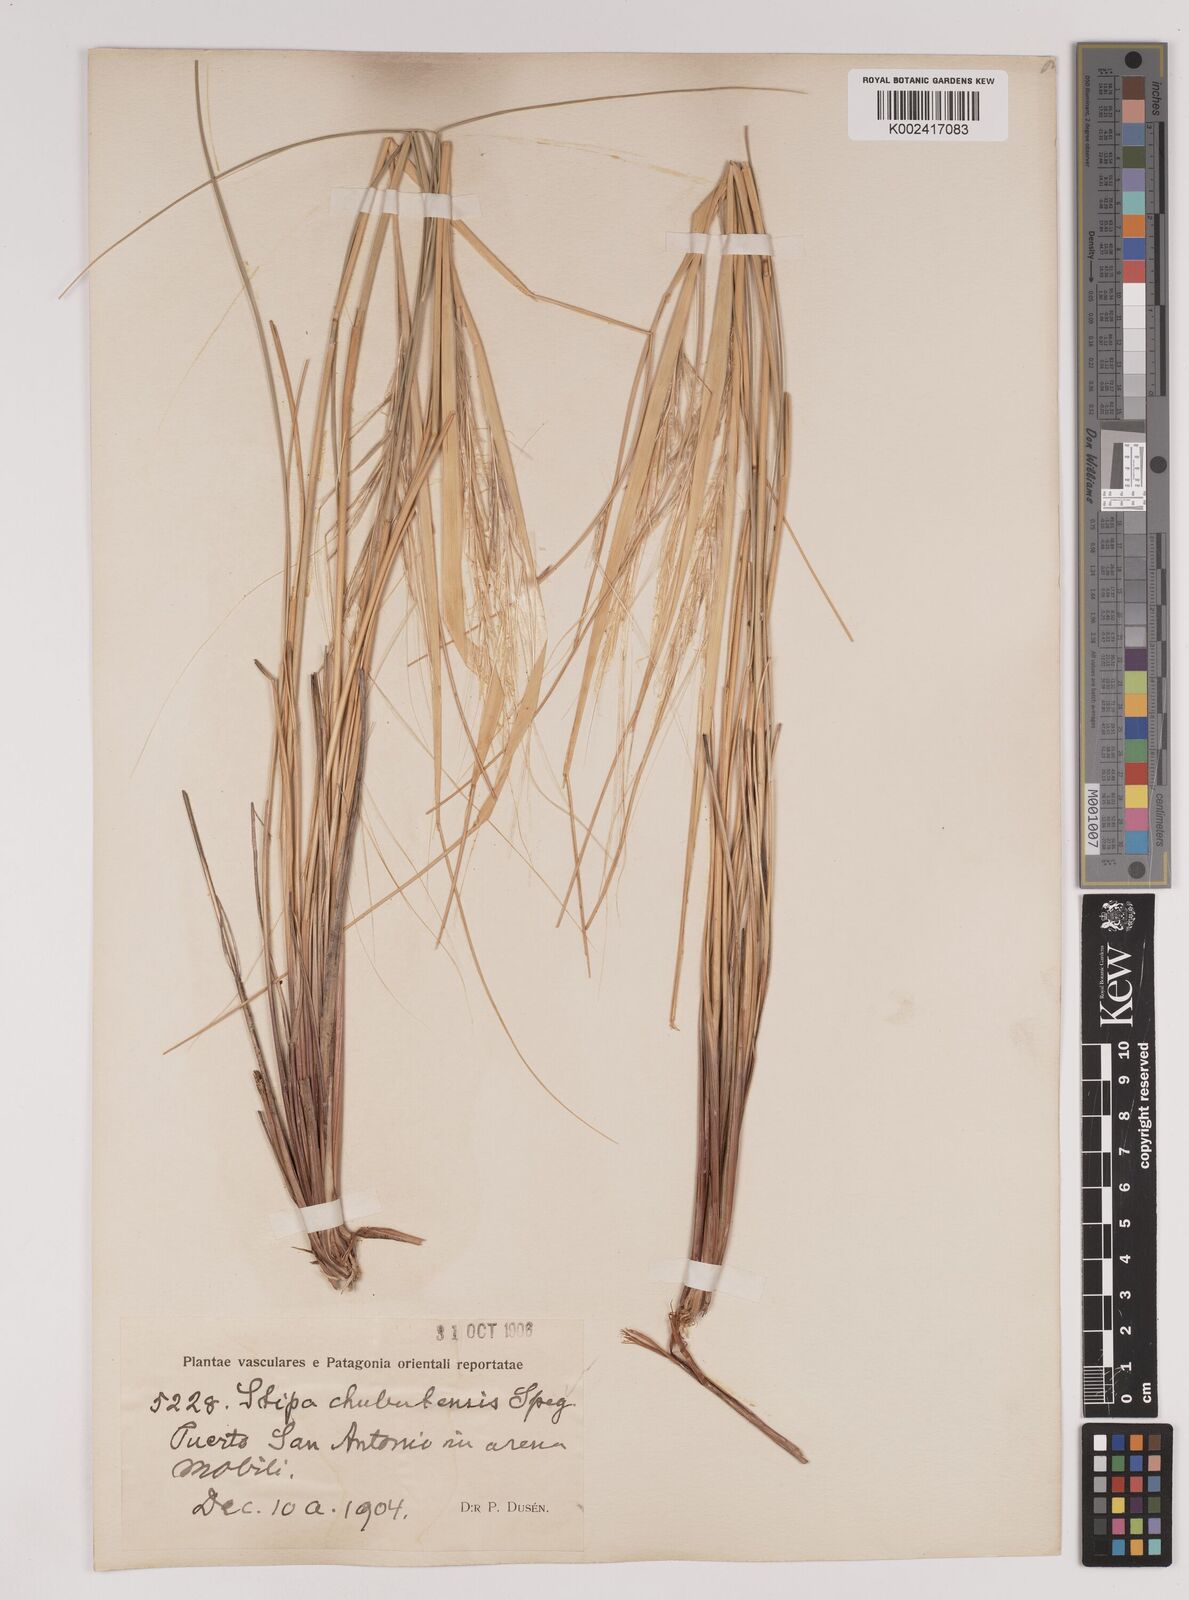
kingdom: Plantae
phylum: Tracheophyta
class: Liliopsida
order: Poales
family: Poaceae
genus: Pappostipa
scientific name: Pappostipa chubutensis
